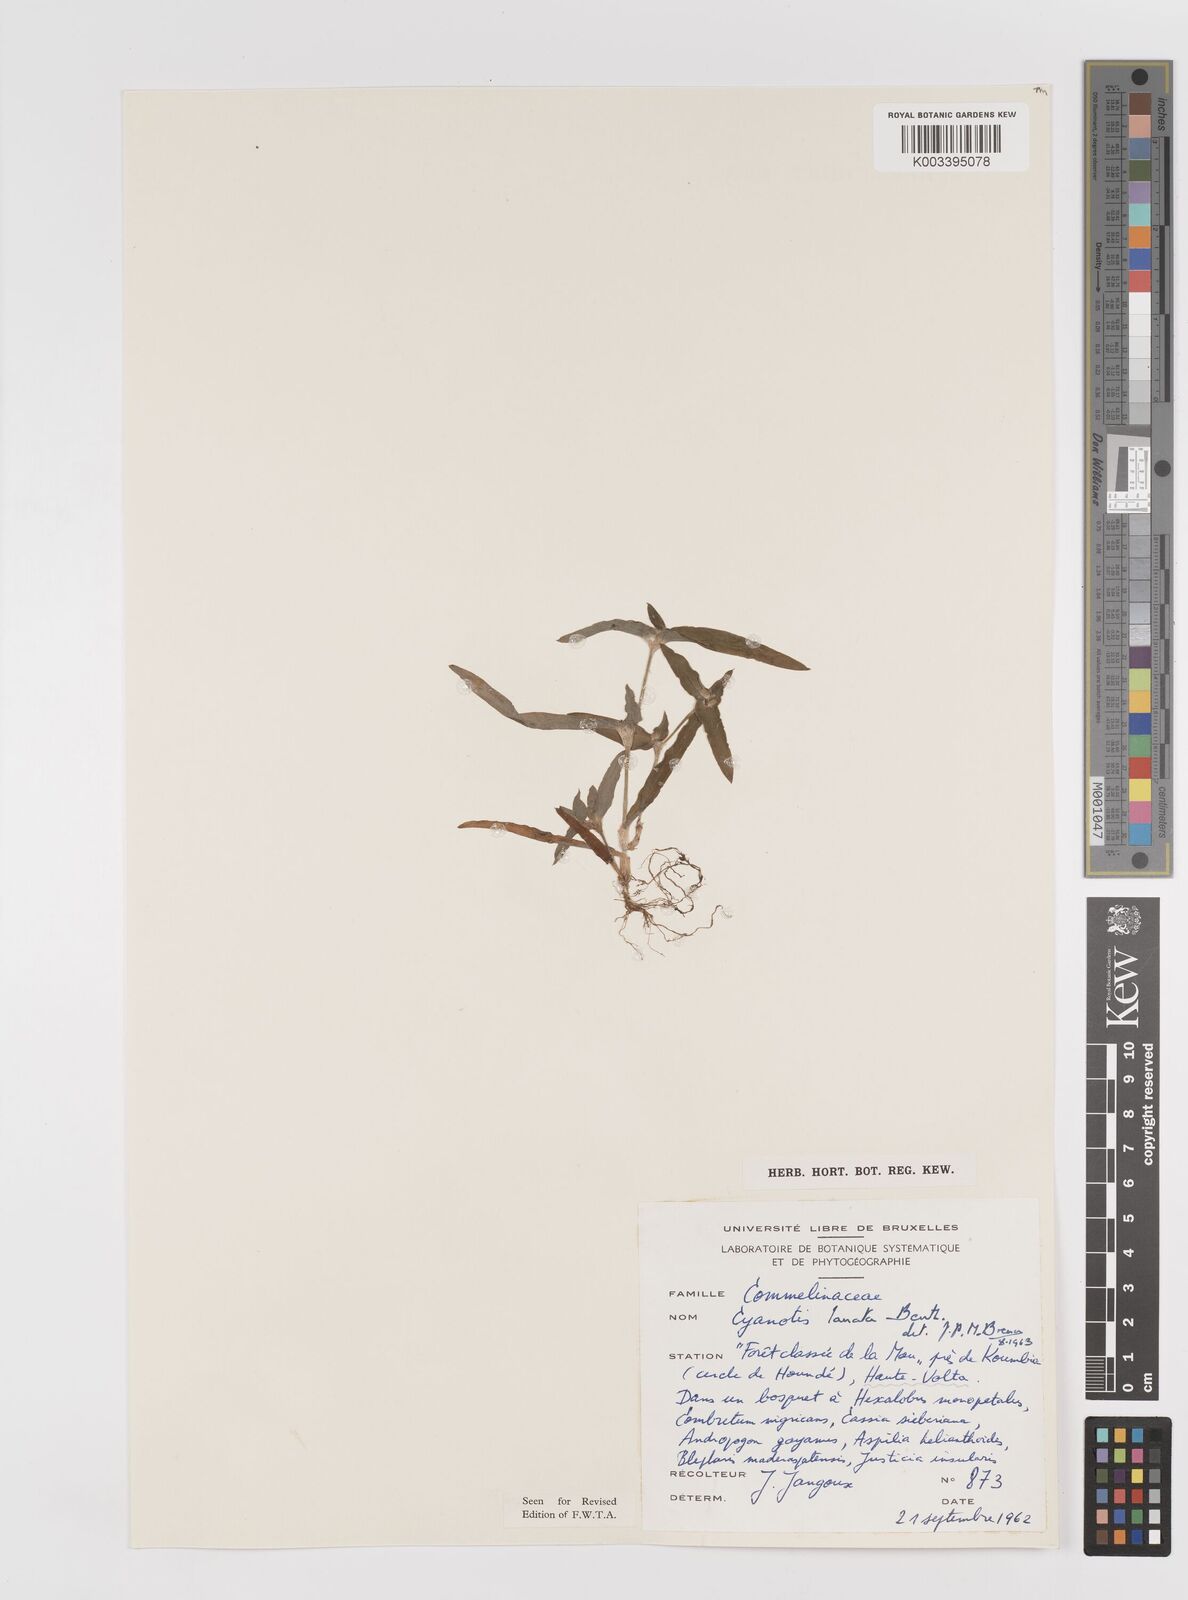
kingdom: Plantae
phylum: Tracheophyta
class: Liliopsida
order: Commelinales
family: Commelinaceae
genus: Cyanotis
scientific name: Cyanotis lanata
